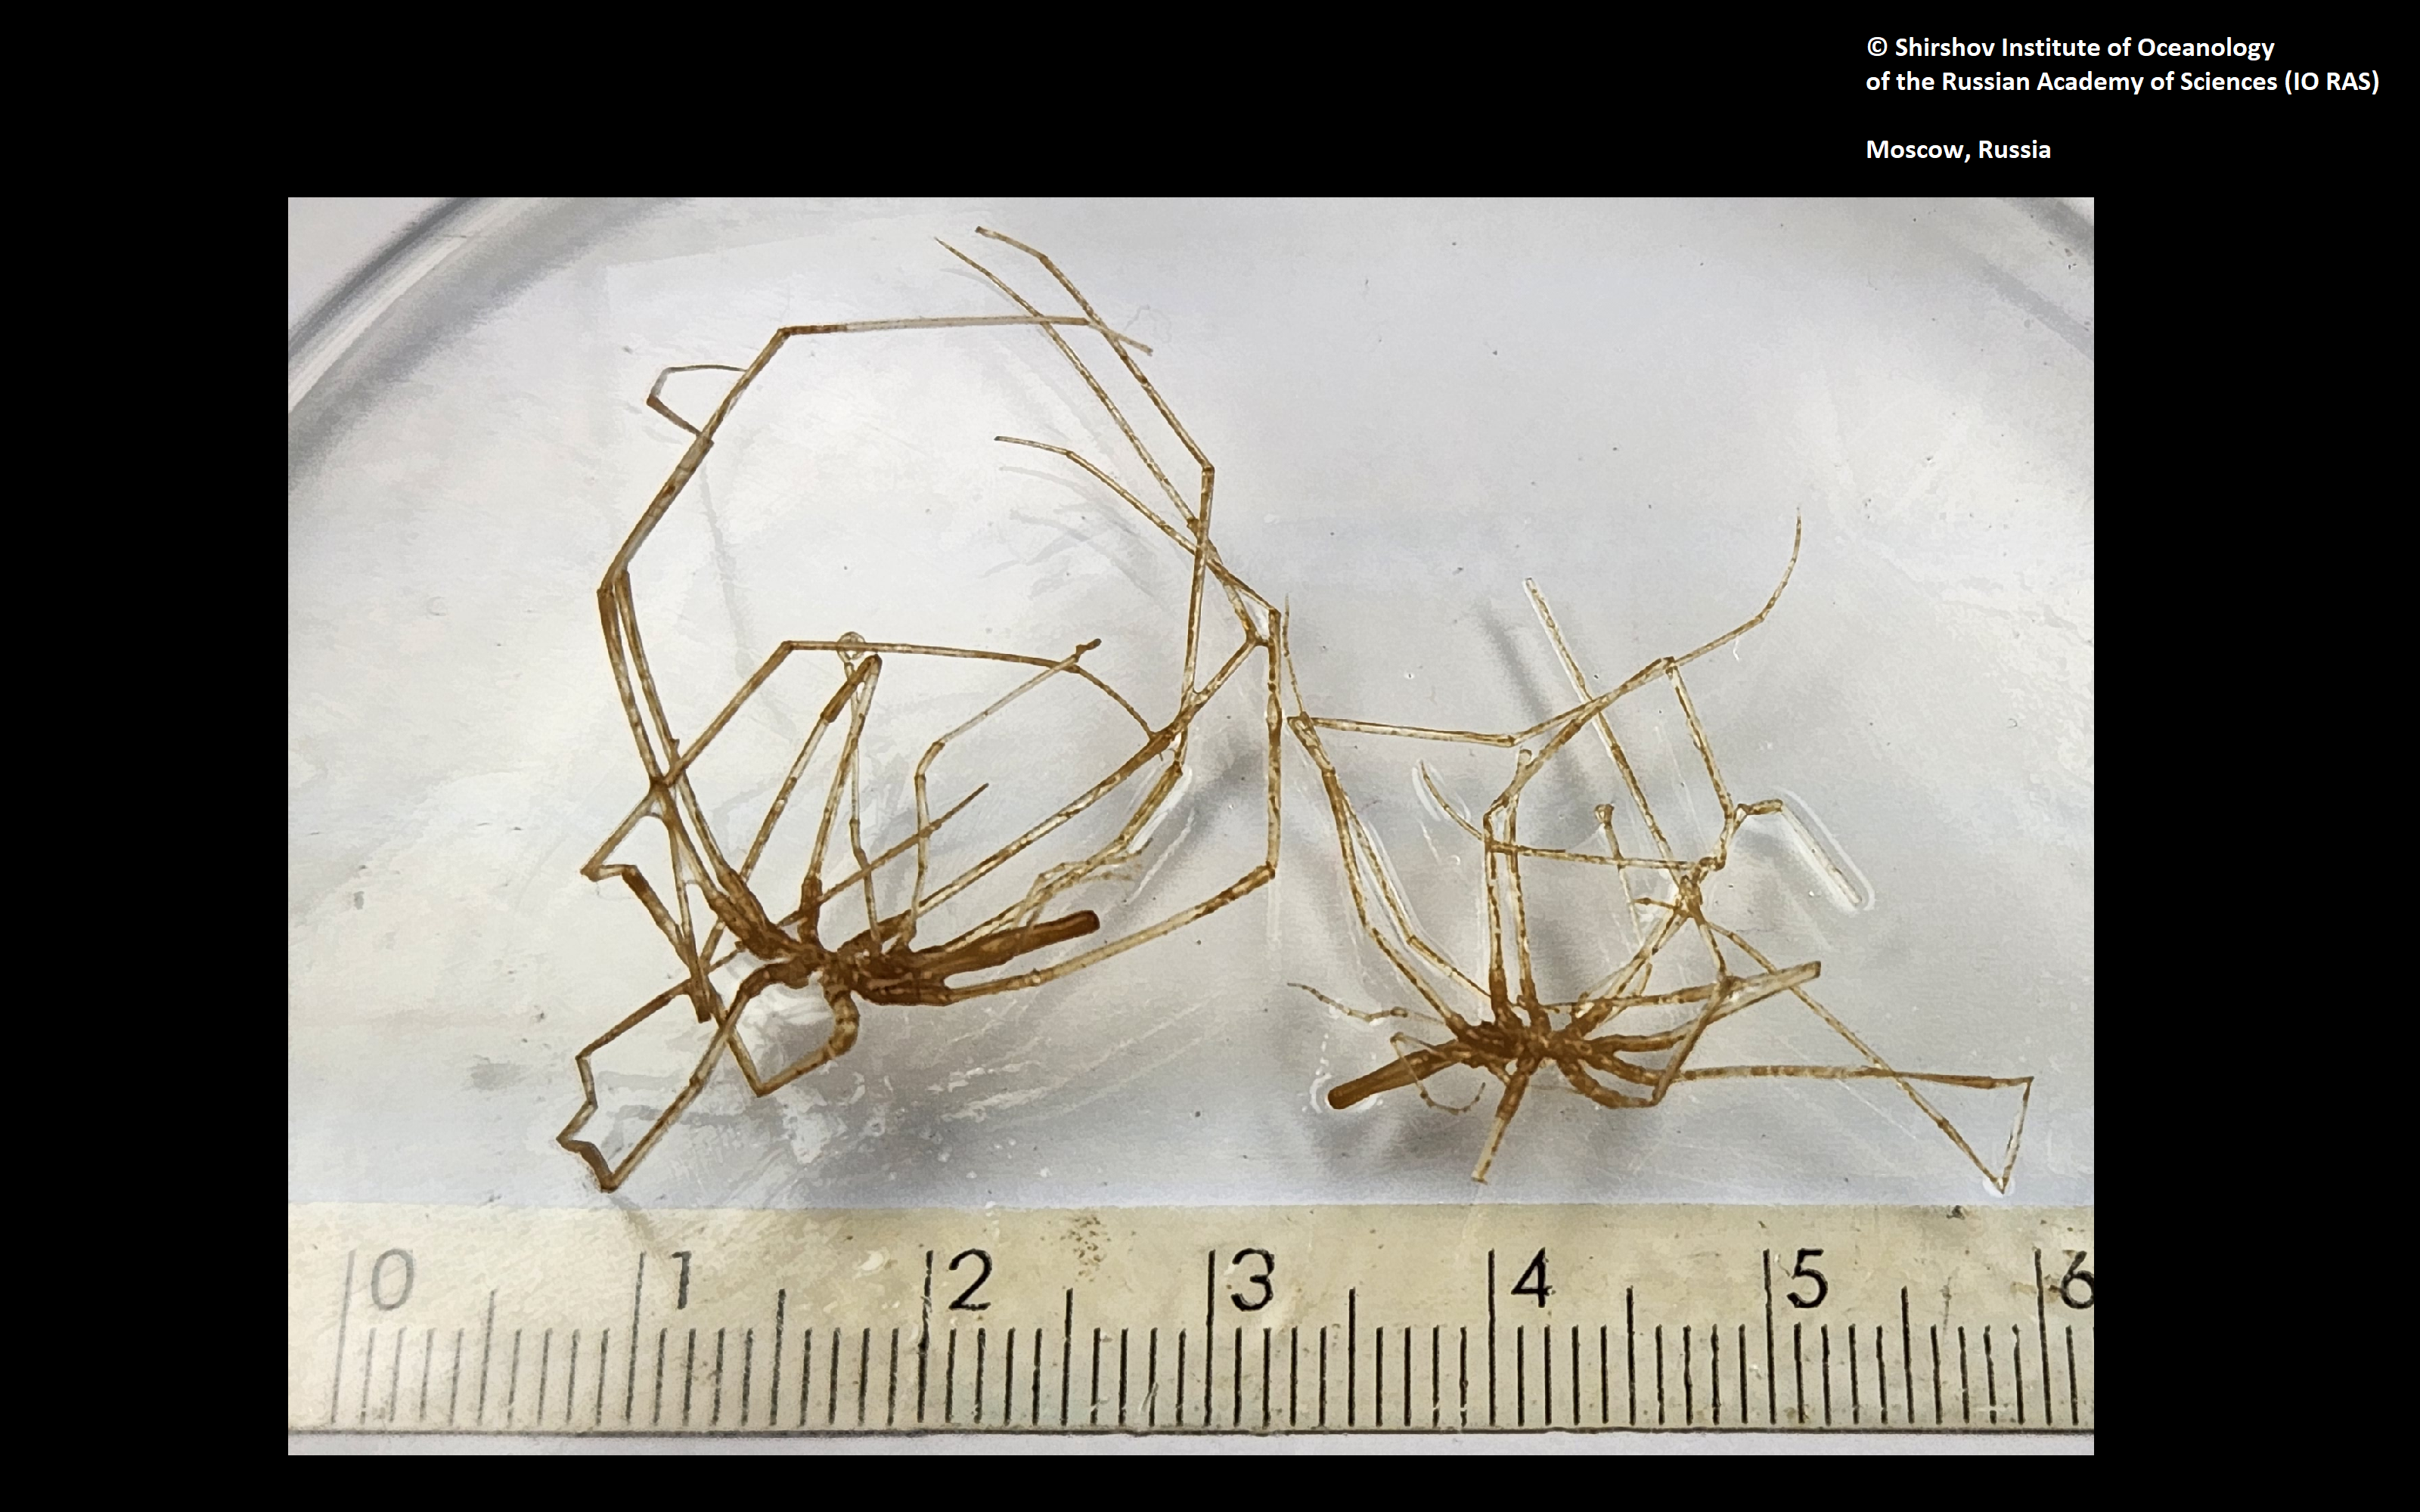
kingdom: Animalia
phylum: Arthropoda
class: Pycnogonida
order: Pantopoda
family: Colossendeidae
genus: Colossendeis
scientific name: Colossendeis aperta
